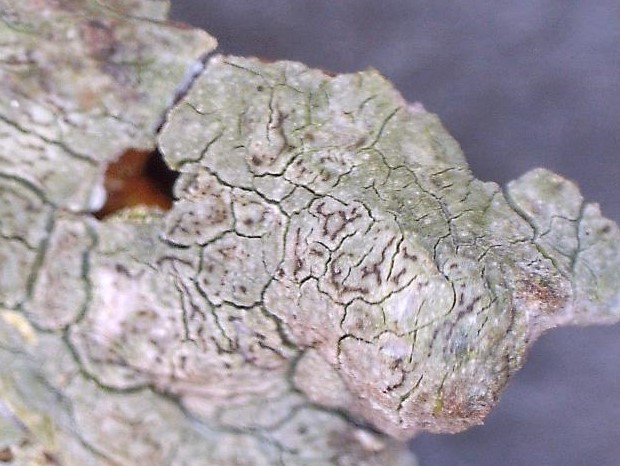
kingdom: Fungi
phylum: Ascomycota
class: Arthoniomycetes
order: Arthoniales
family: Roccellaceae
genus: Enterographa
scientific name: Enterographa crassa
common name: tyk prægelav
